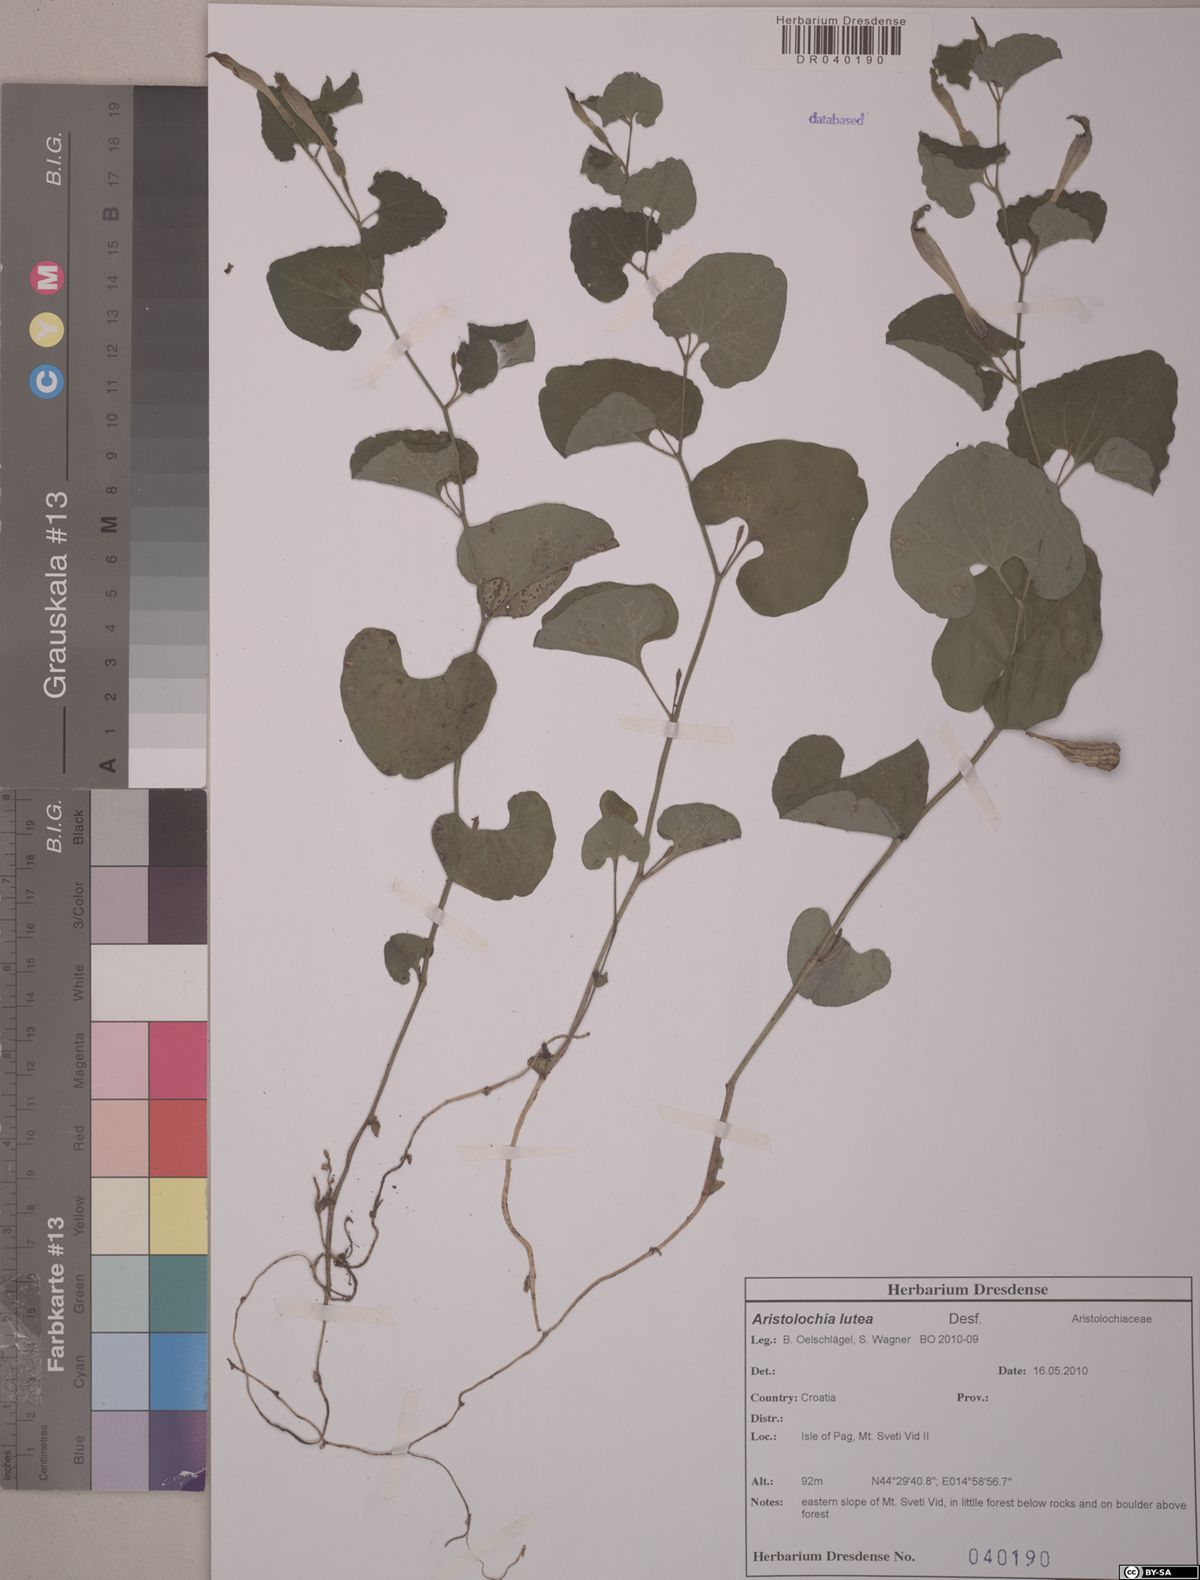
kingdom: Plantae
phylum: Tracheophyta
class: Magnoliopsida
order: Piperales
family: Aristolochiaceae
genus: Aristolochia
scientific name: Aristolochia lutea
